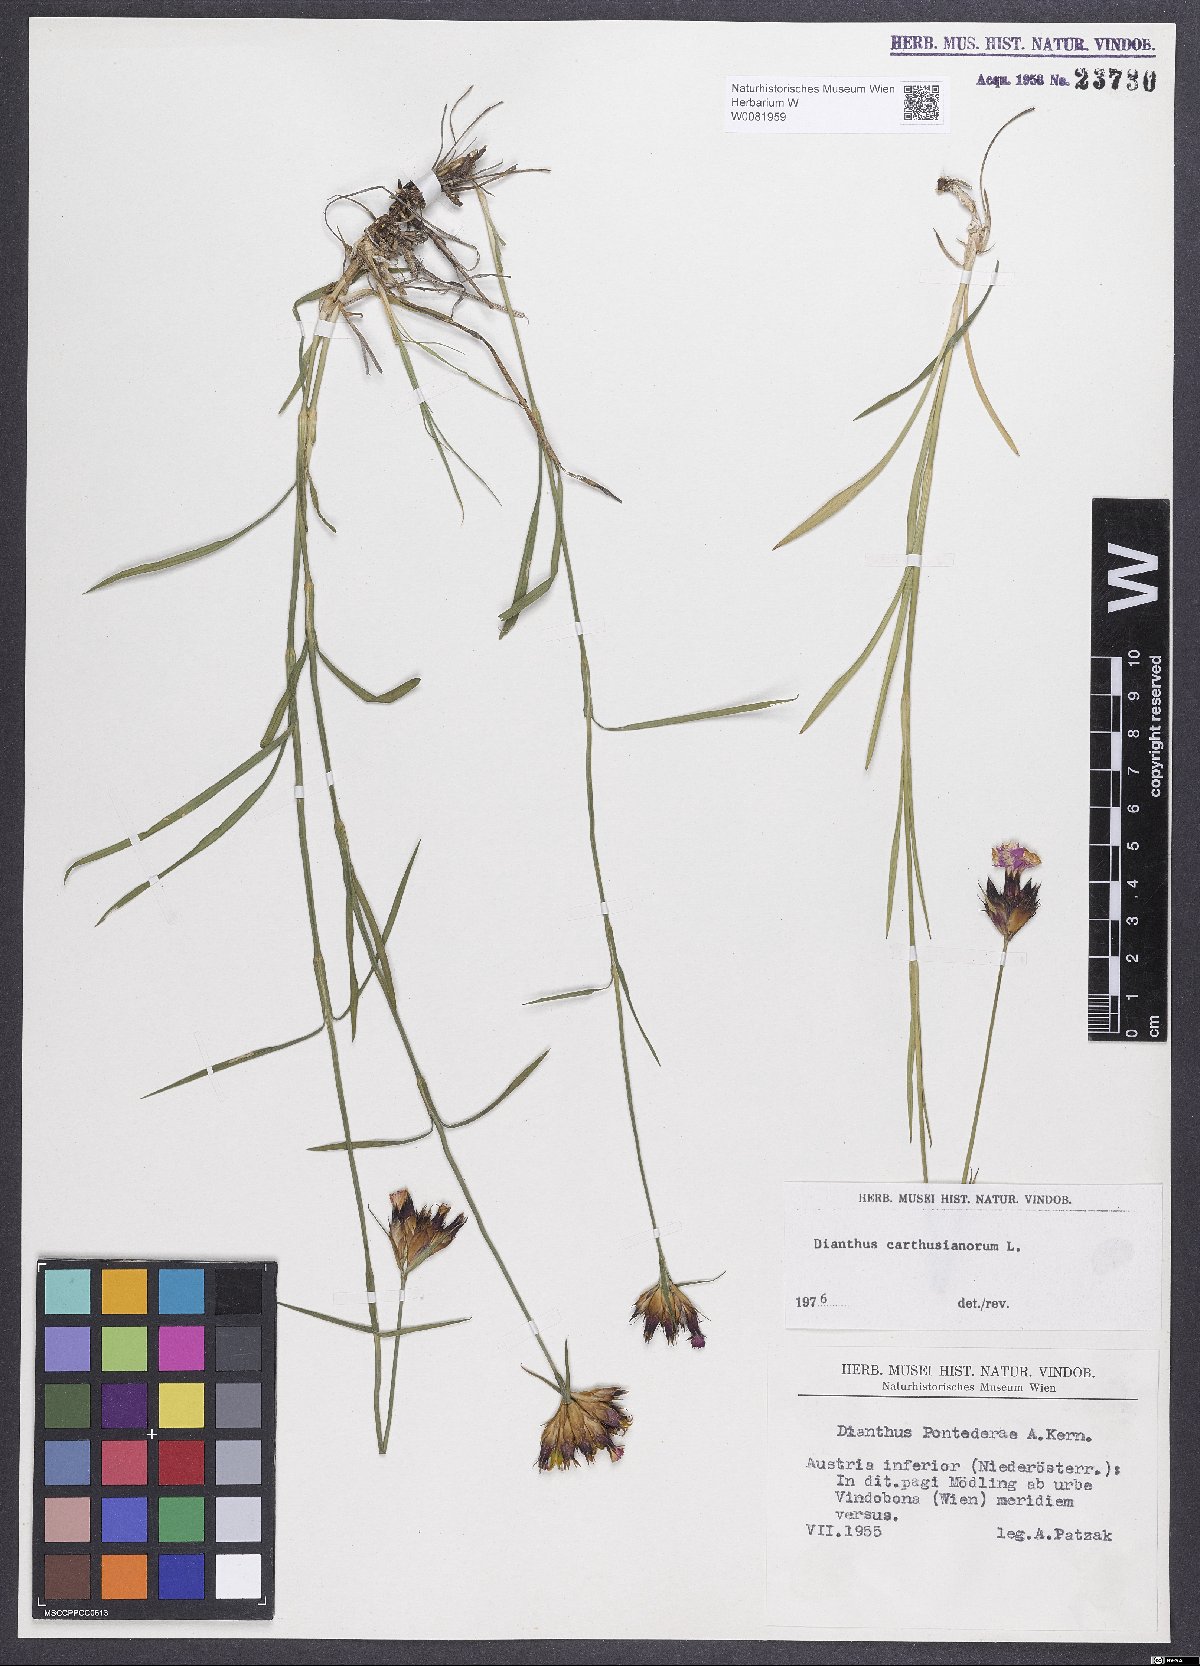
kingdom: Plantae
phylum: Tracheophyta
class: Magnoliopsida
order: Caryophyllales
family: Caryophyllaceae
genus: Dianthus
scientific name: Dianthus carthusianorum
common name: Carthusian pink
